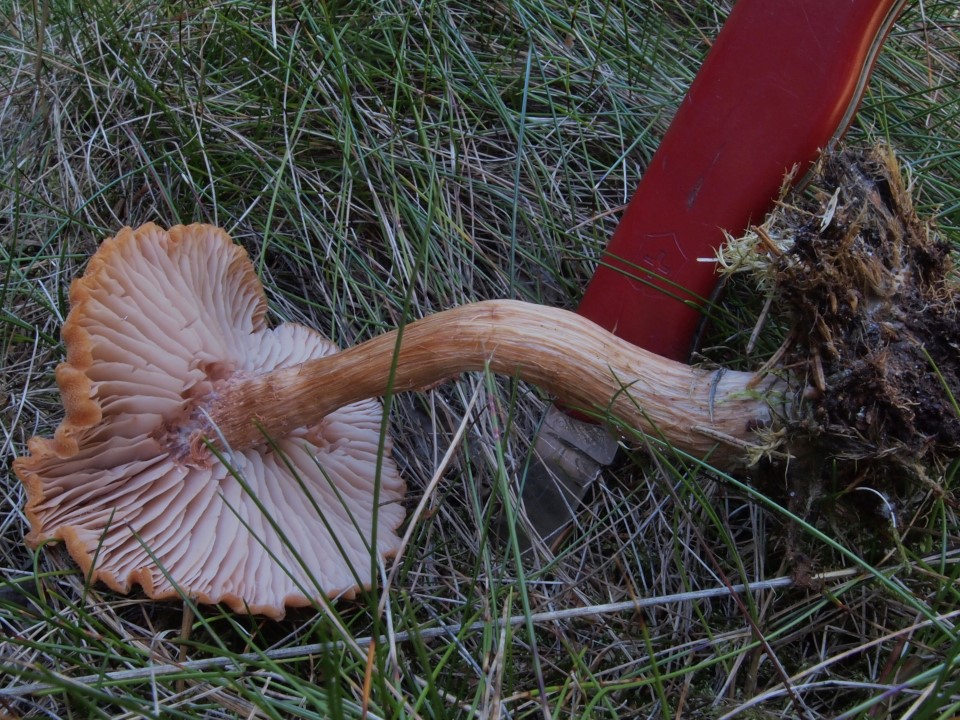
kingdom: Fungi
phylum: Basidiomycota
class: Agaricomycetes
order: Agaricales
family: Hydnangiaceae
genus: Laccaria
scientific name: Laccaria bicolor
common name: tvefarvet ametysthat
